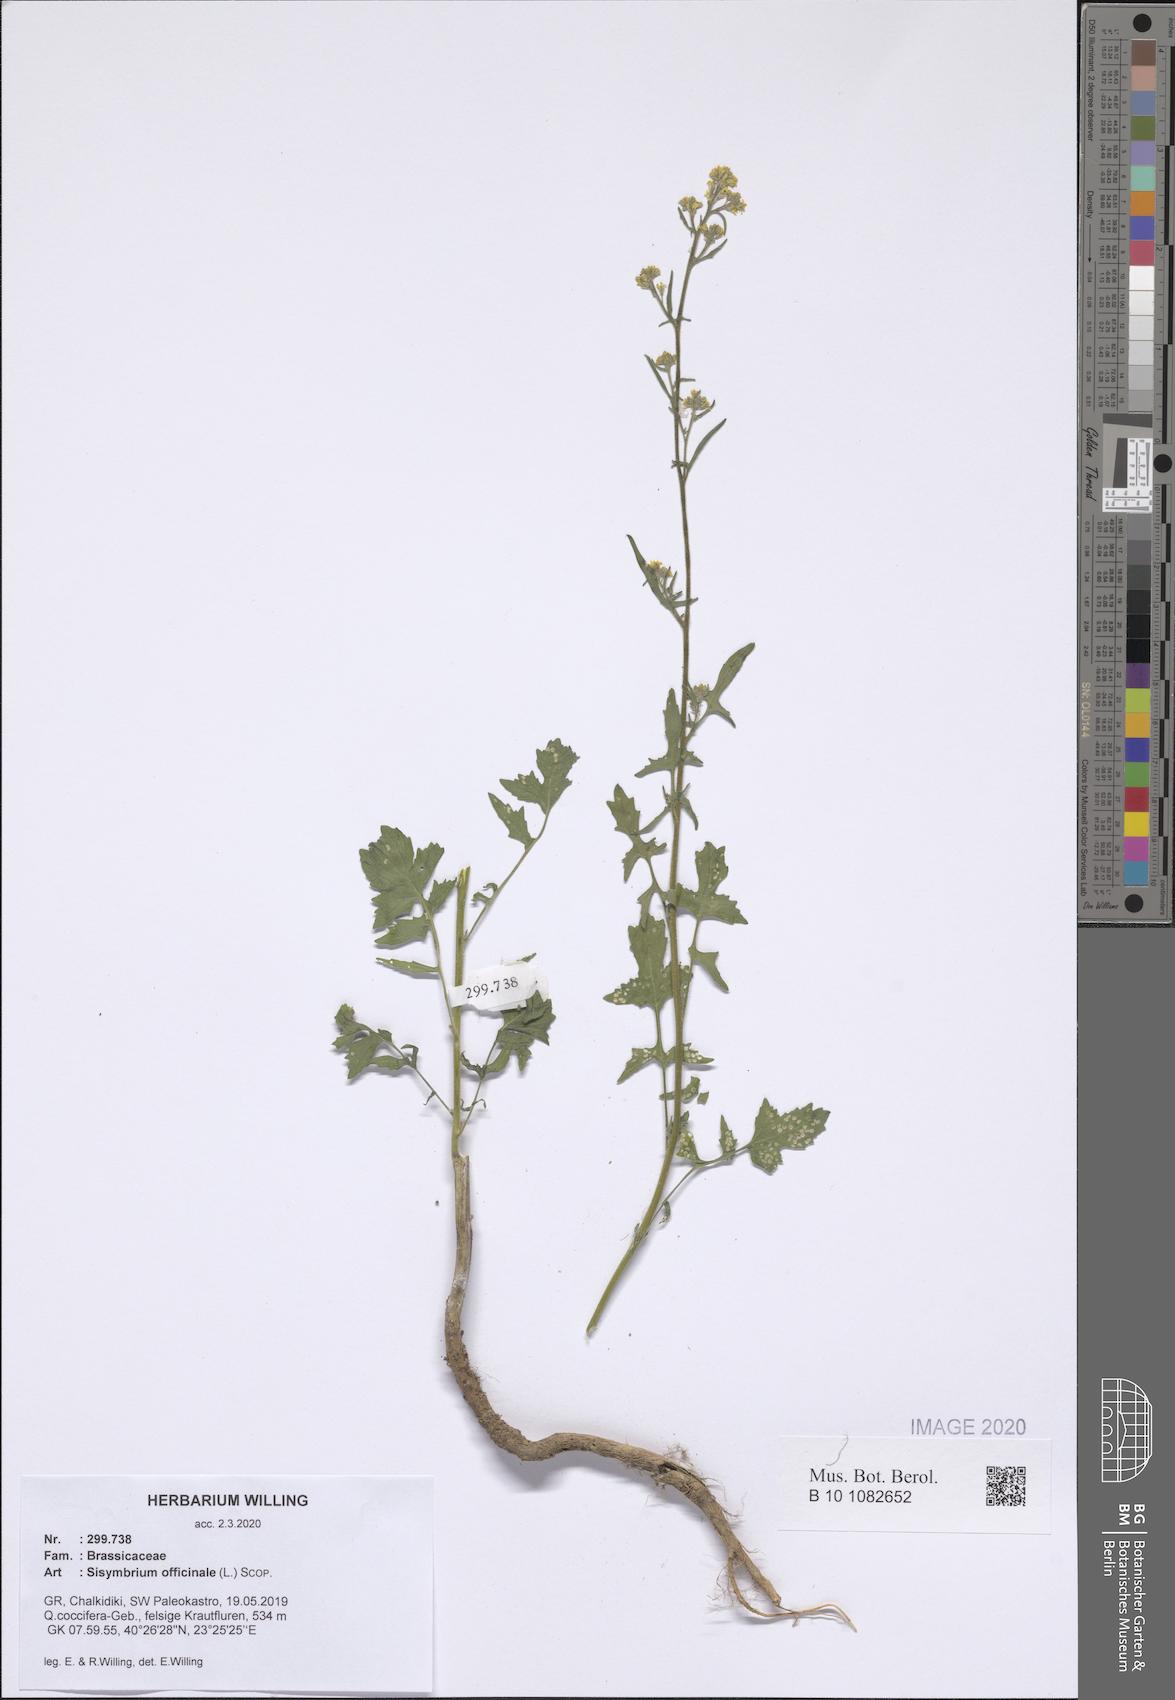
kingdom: Plantae
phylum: Tracheophyta
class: Magnoliopsida
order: Brassicales
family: Brassicaceae
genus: Sisymbrium
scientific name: Sisymbrium officinale
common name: Hedge mustard
